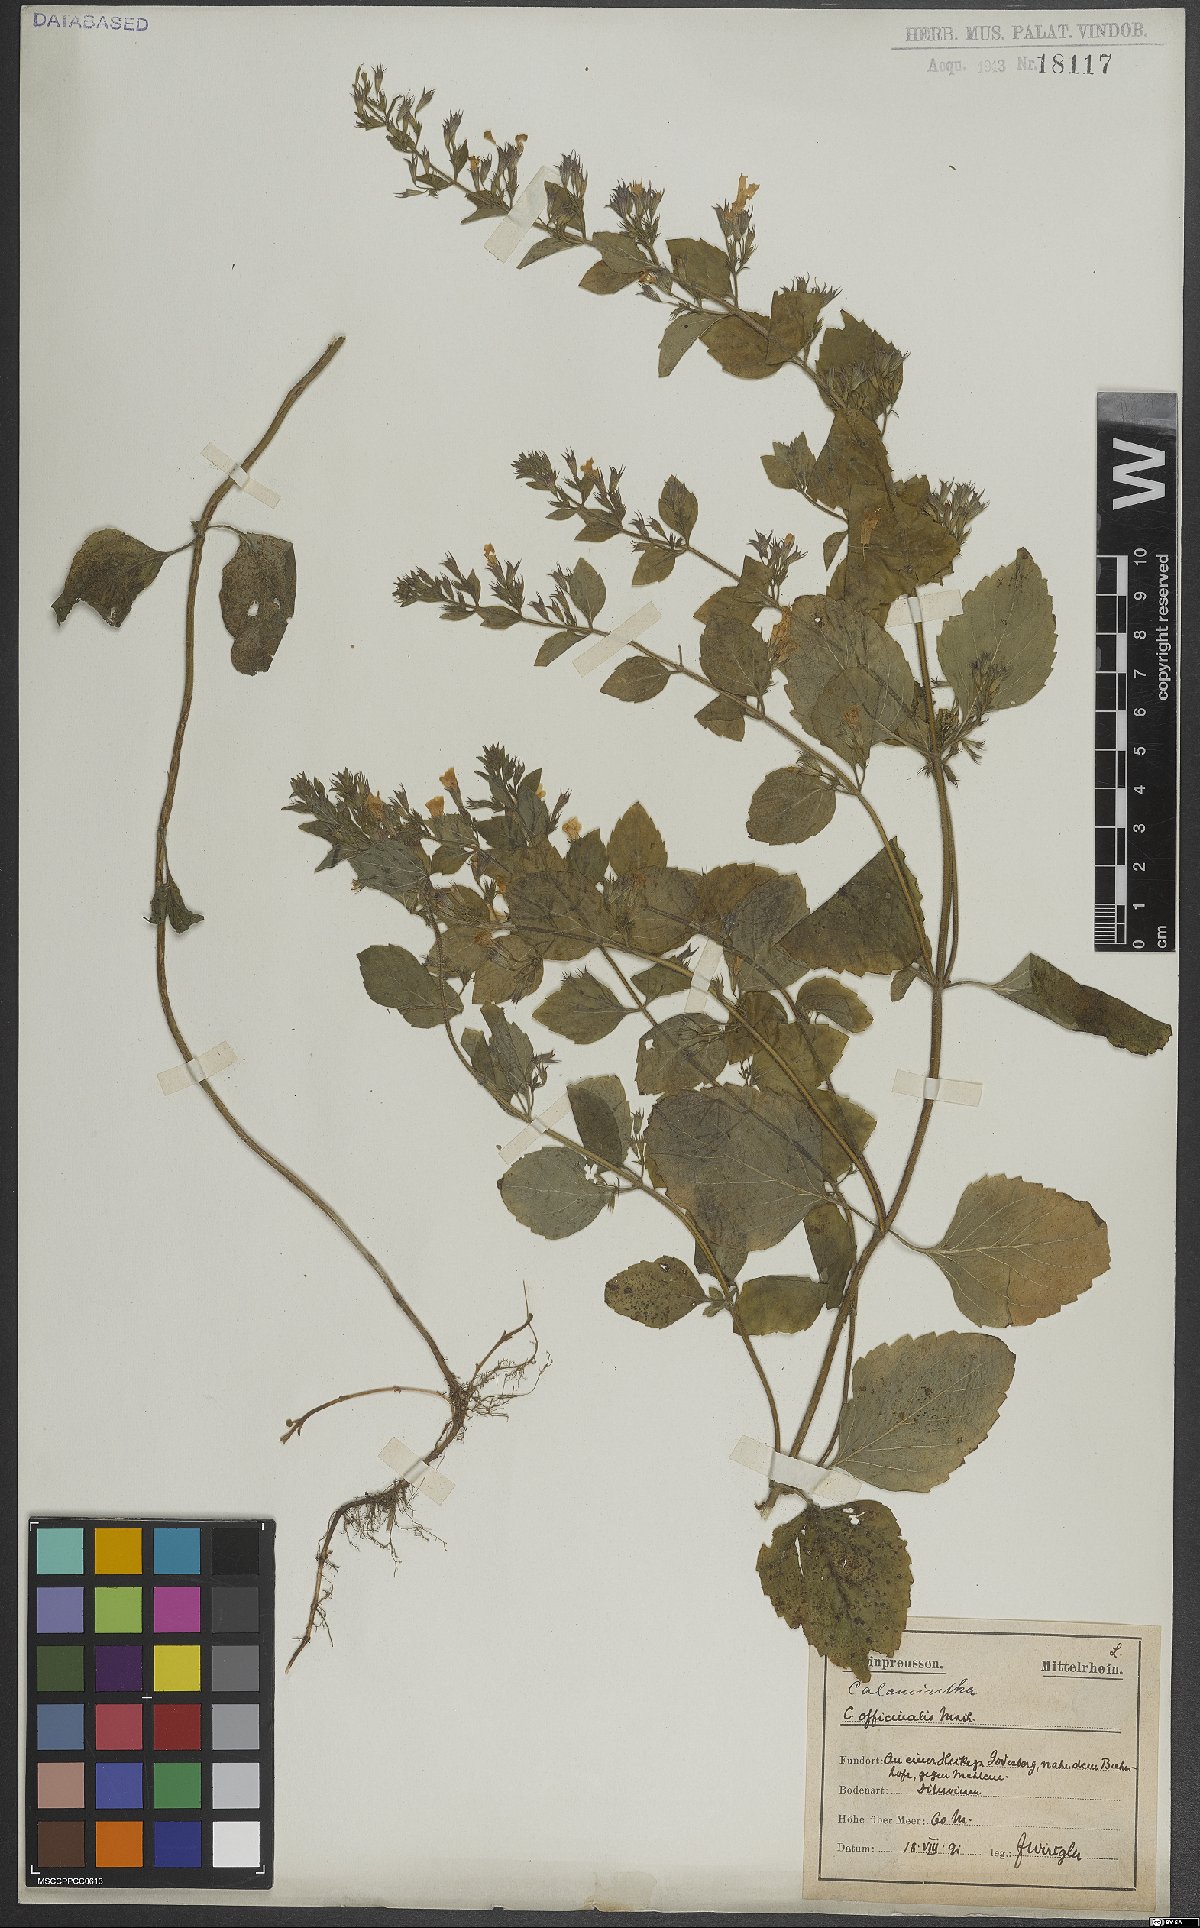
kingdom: Plantae
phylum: Tracheophyta
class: Magnoliopsida
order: Lamiales
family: Lamiaceae
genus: Clinopodium
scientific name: Clinopodium nepeta
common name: Lesser calamint
